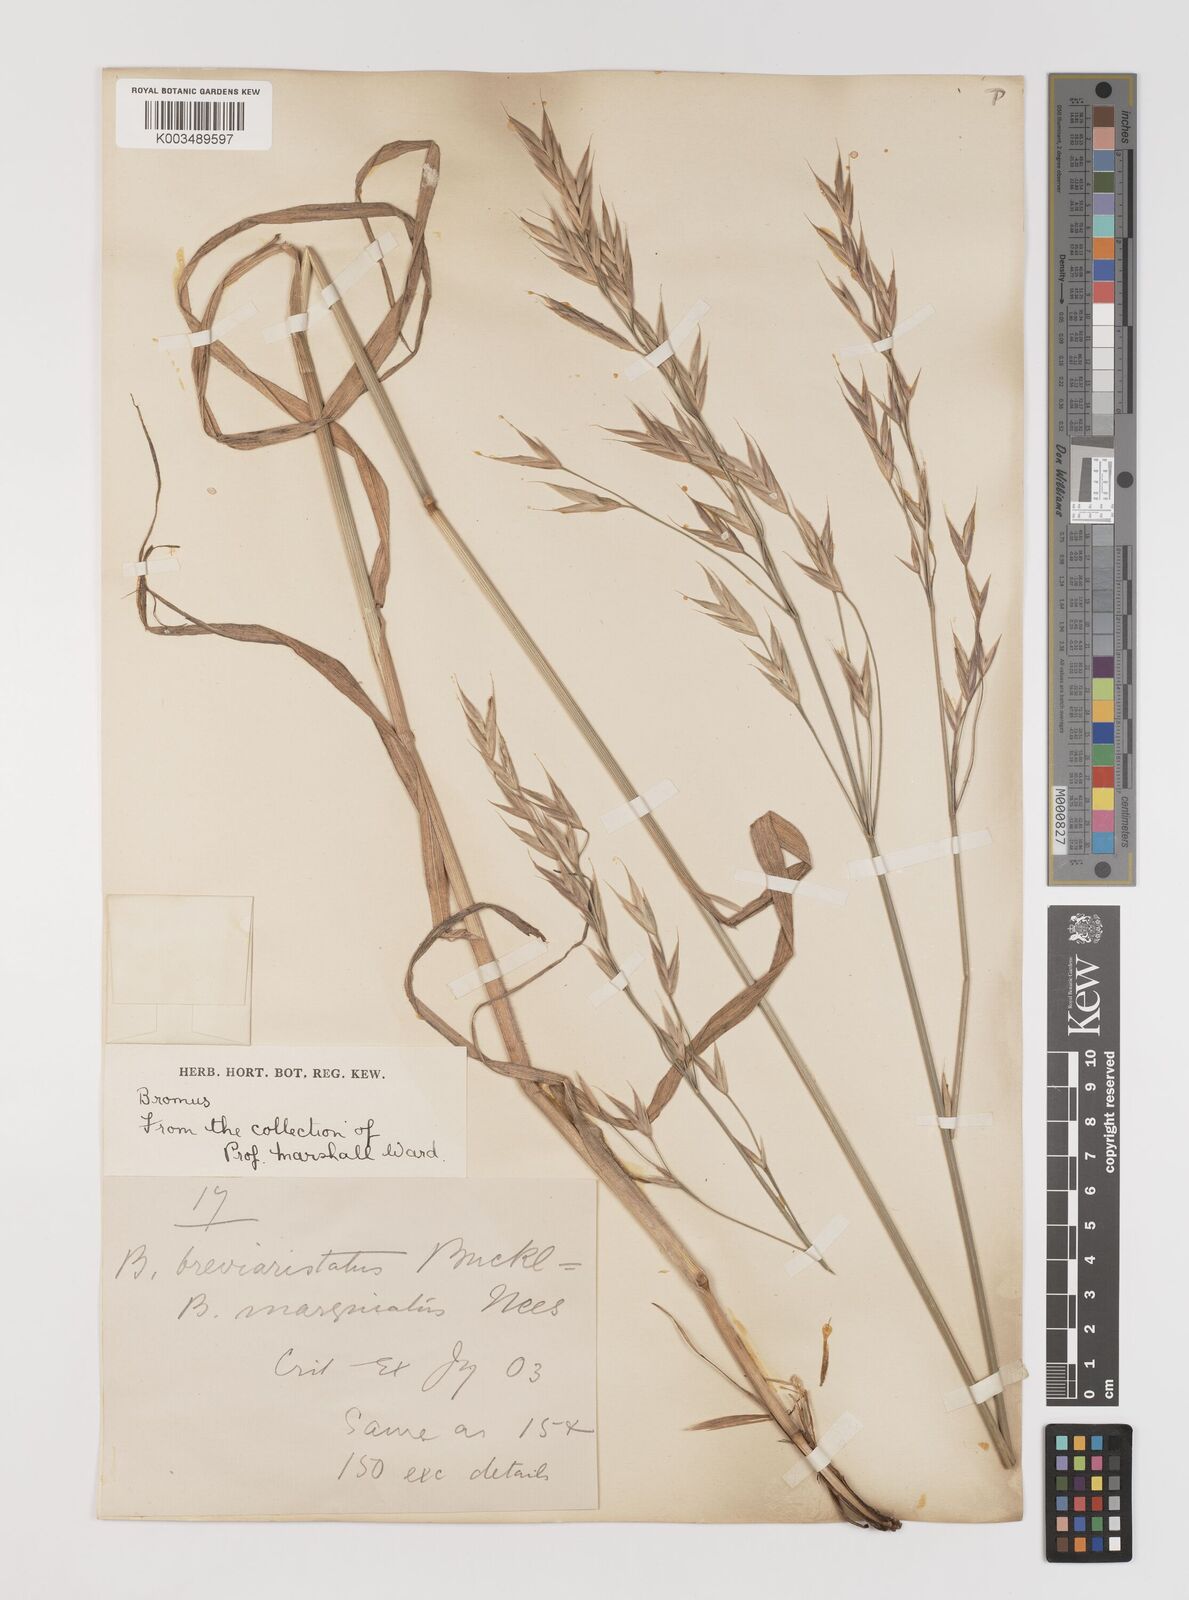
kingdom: Plantae
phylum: Tracheophyta
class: Liliopsida
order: Poales
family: Poaceae
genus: Bromus
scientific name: Bromus carinatus
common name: Mountain brome
